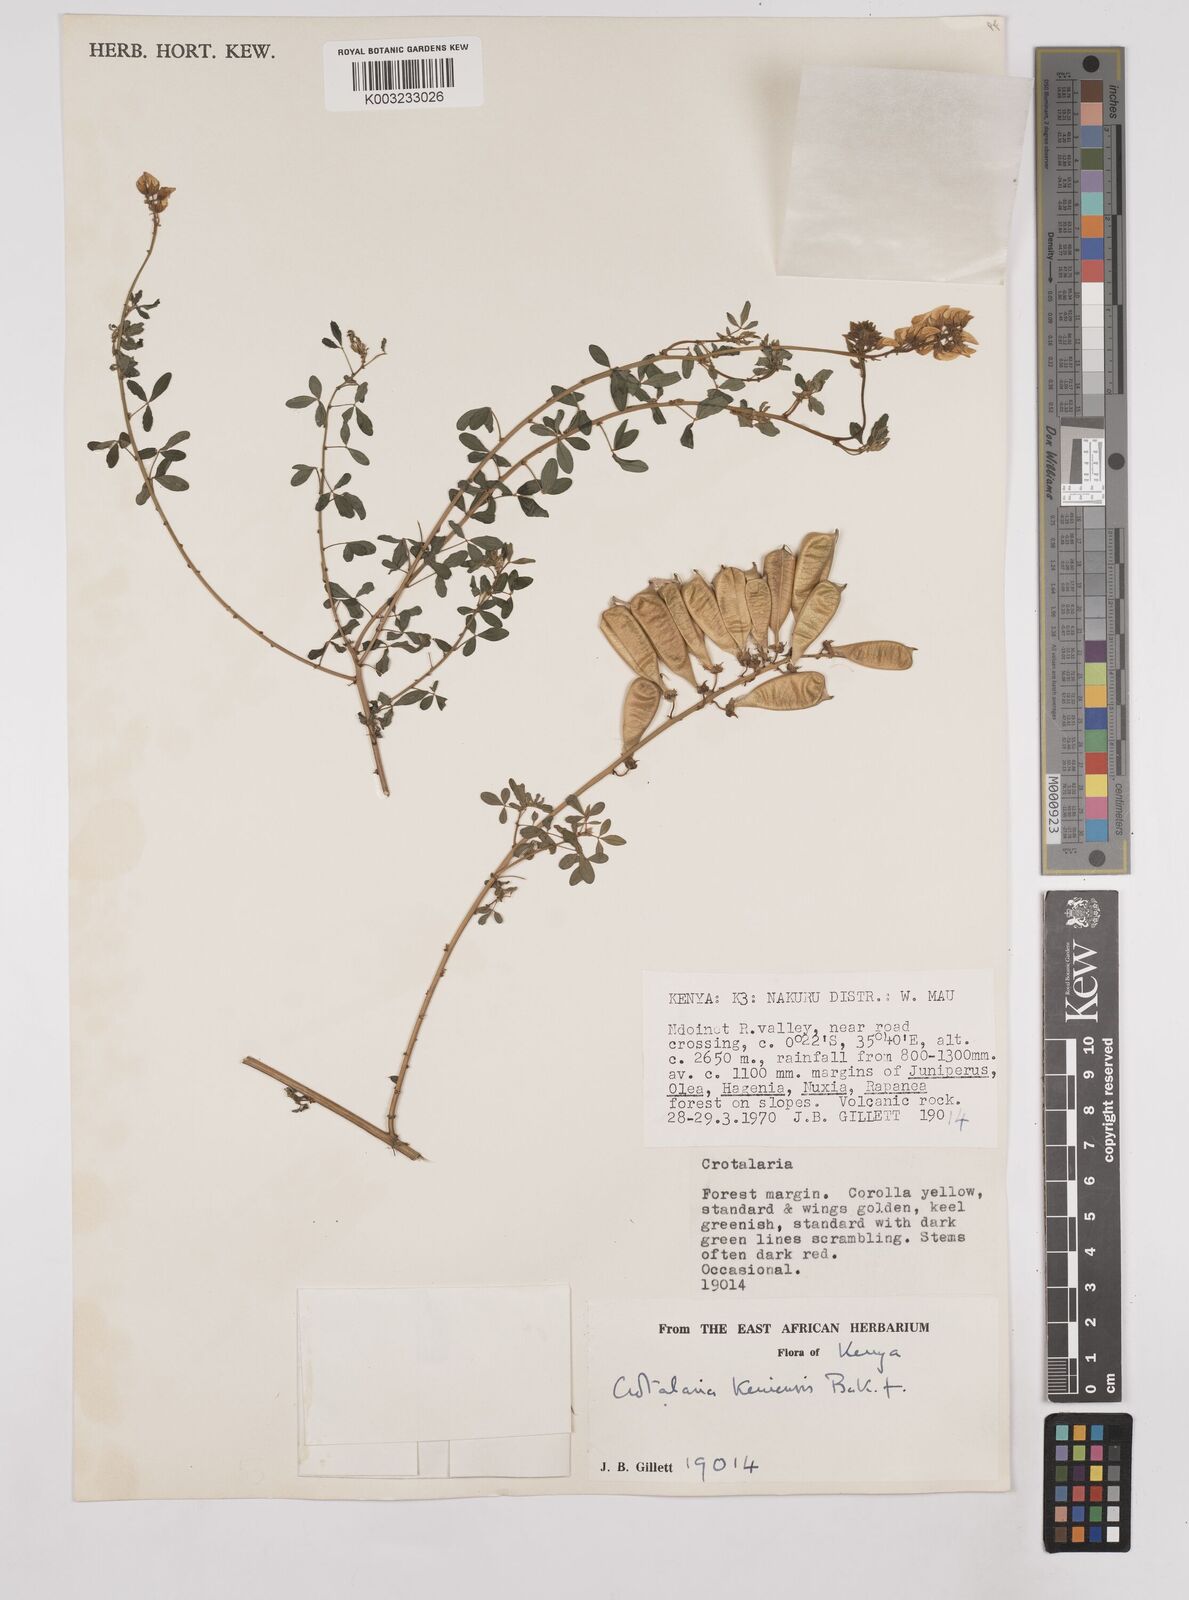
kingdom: Plantae
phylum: Tracheophyta
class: Magnoliopsida
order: Fabales
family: Fabaceae
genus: Crotalaria
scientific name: Crotalaria keniensis
